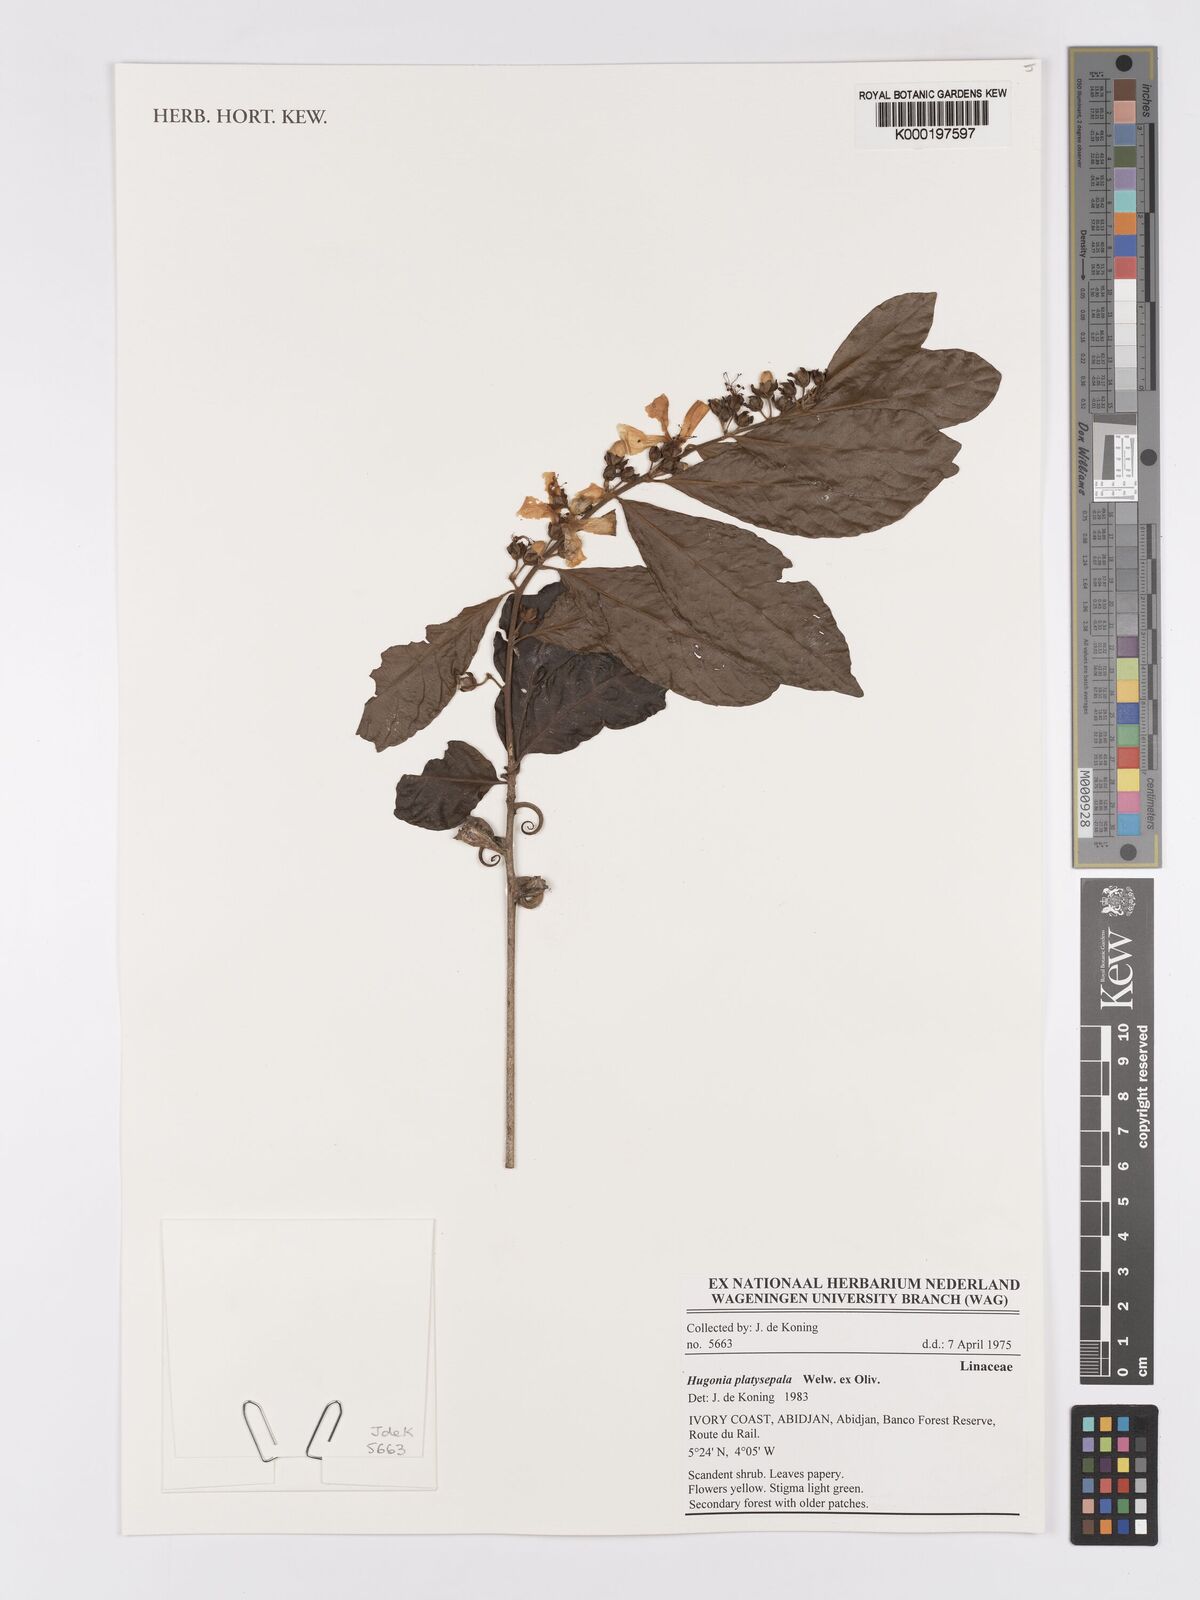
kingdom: Plantae
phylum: Tracheophyta
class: Magnoliopsida
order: Malpighiales
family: Linaceae
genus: Hugonia
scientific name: Hugonia
